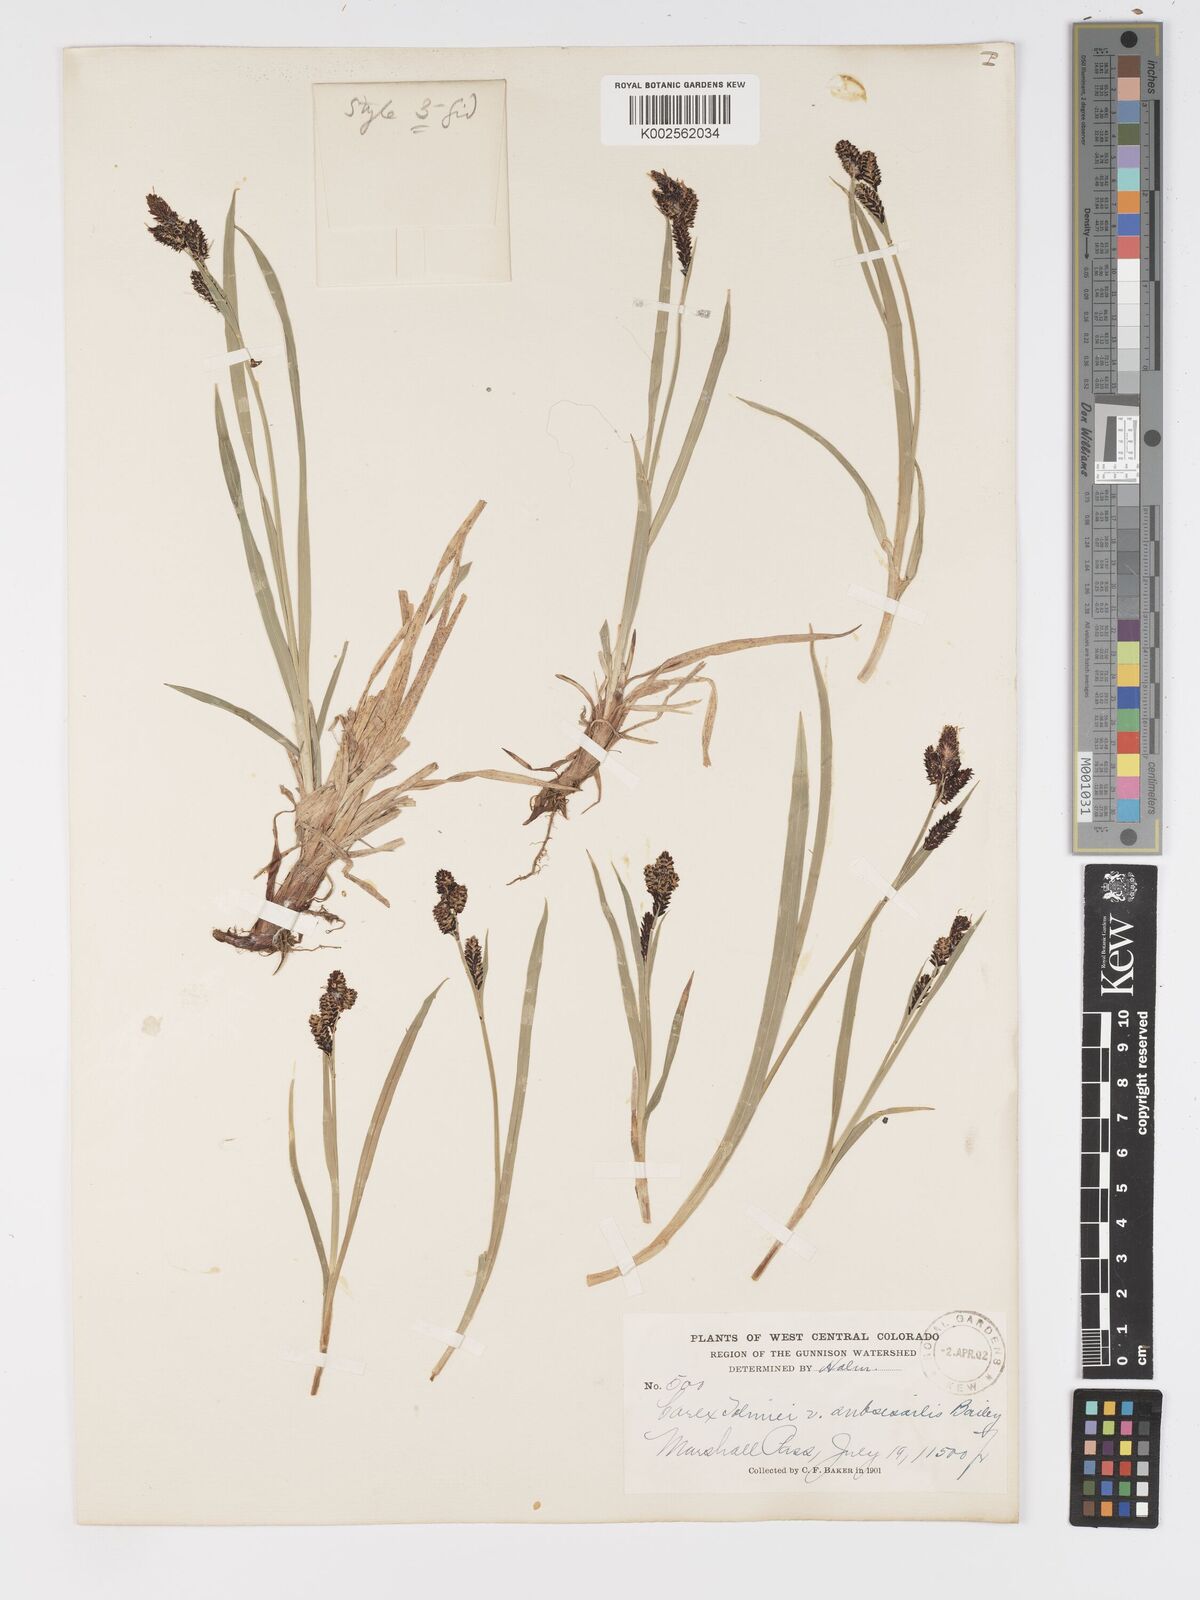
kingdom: Plantae
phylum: Tracheophyta
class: Liliopsida
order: Poales
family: Cyperaceae
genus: Carex
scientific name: Carex scopulorum
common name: Holm's rocky mountain sedge
